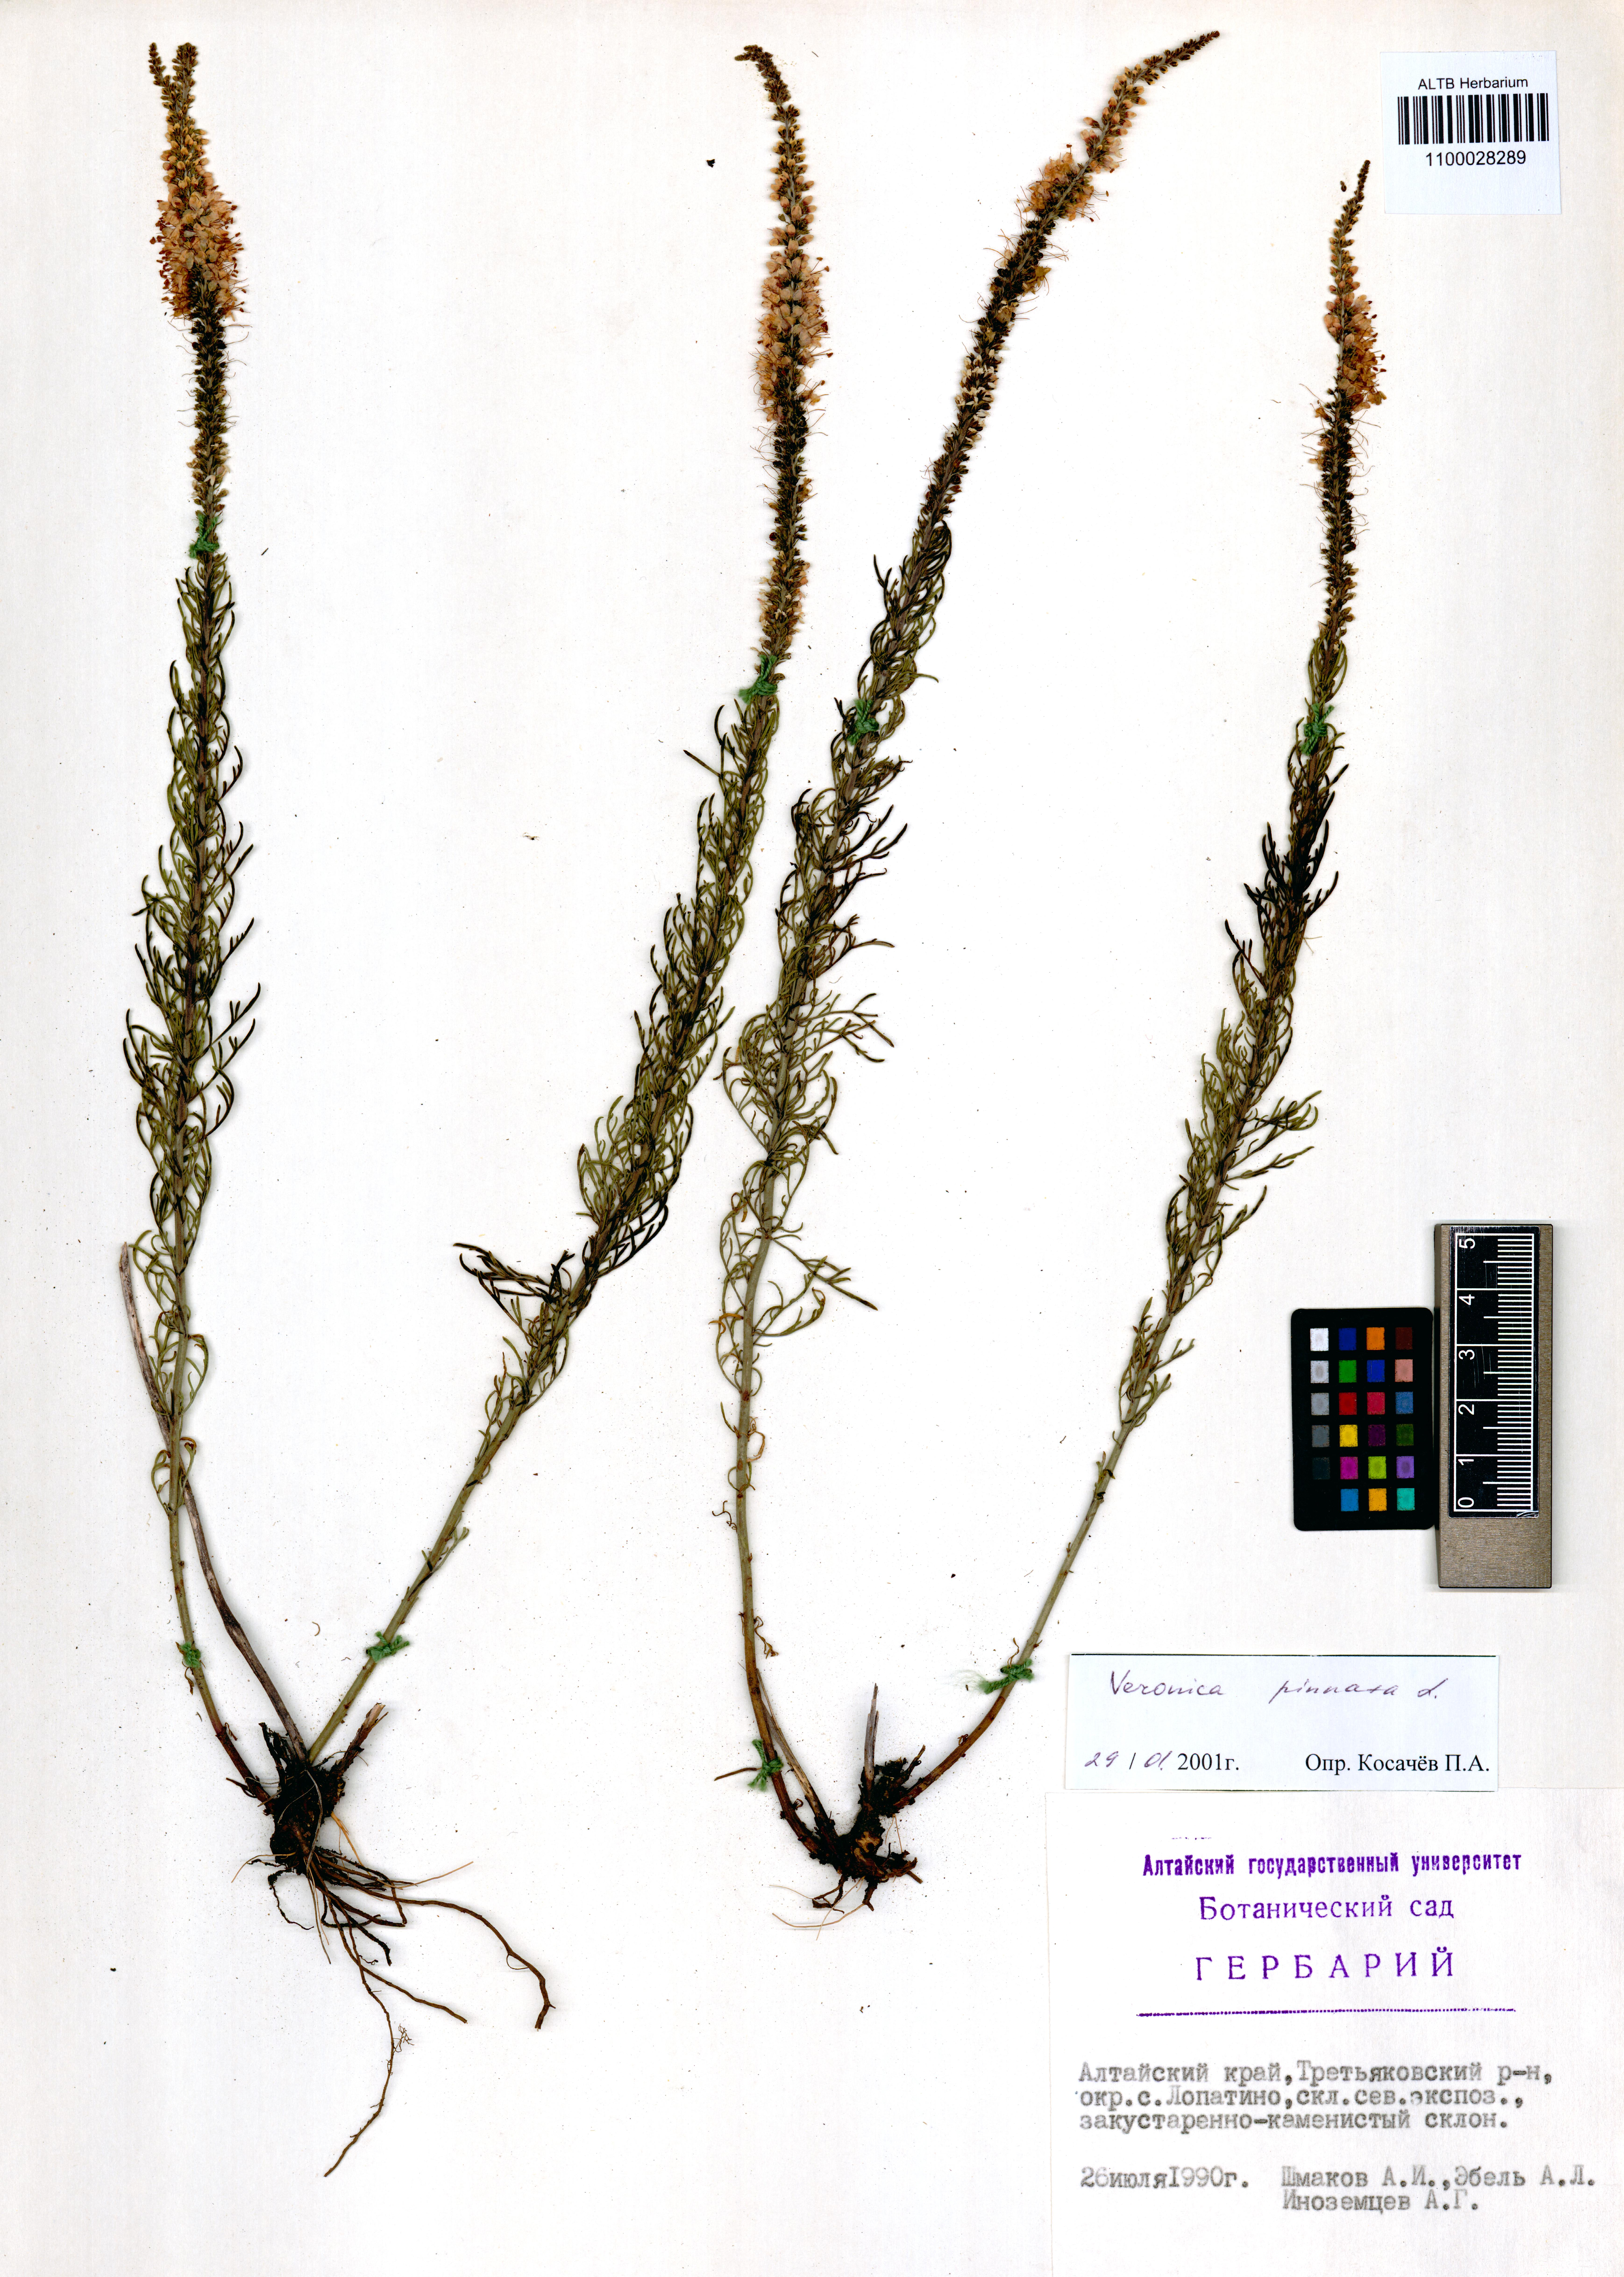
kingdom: Plantae
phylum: Tracheophyta
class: Magnoliopsida
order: Lamiales
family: Plantaginaceae
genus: Veronica
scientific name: Veronica pinnata
